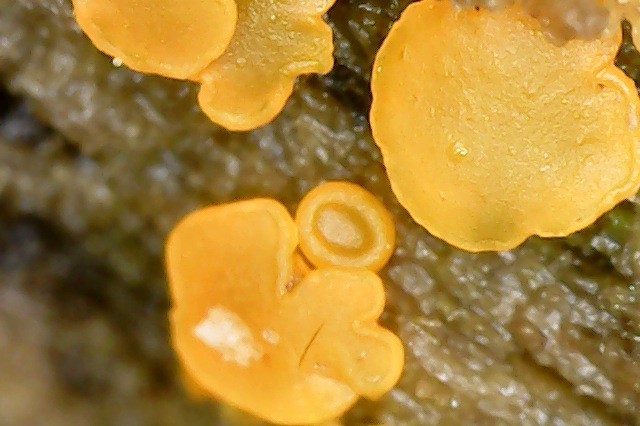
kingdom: Fungi
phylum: Ascomycota
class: Orbiliomycetes
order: Orbiliales
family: Orbiliaceae
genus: Orbilia
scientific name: Orbilia xanthostigma
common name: krumsporet voksskive
